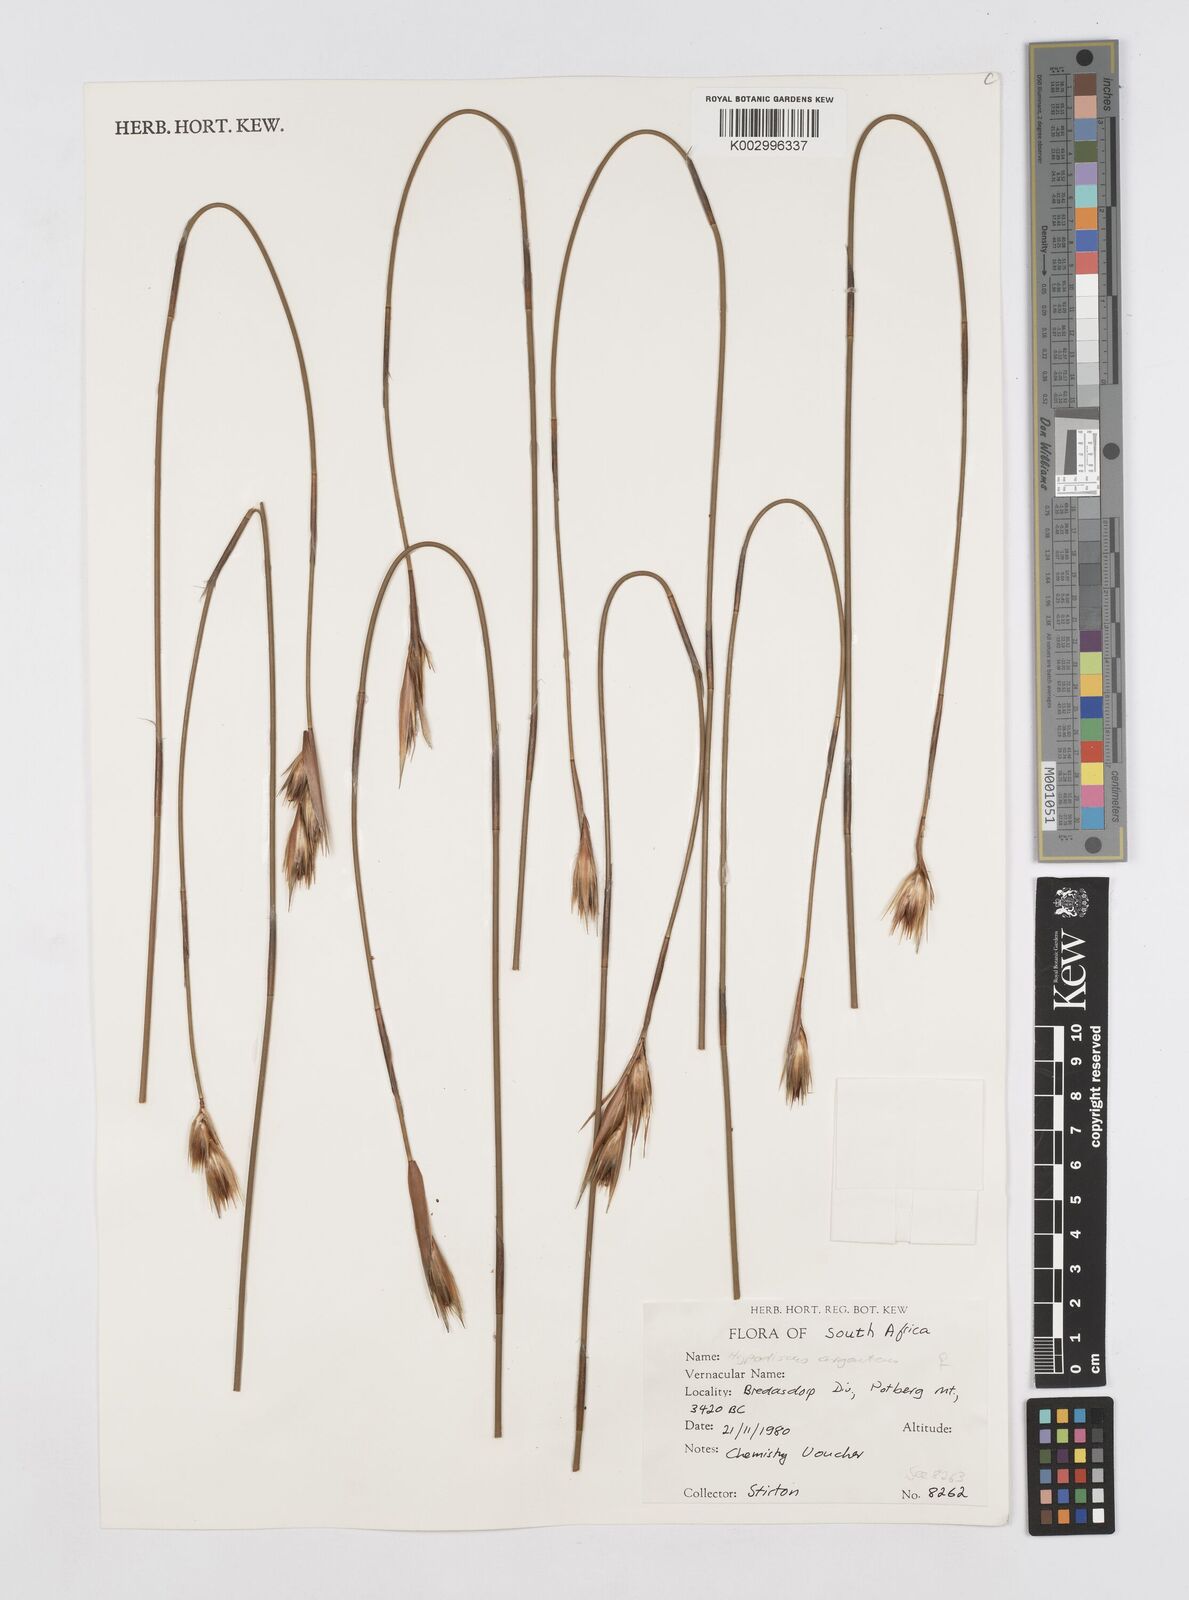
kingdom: Plantae
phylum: Tracheophyta
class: Liliopsida
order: Poales
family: Restionaceae
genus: Hypodiscus
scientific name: Hypodiscus argenteus
